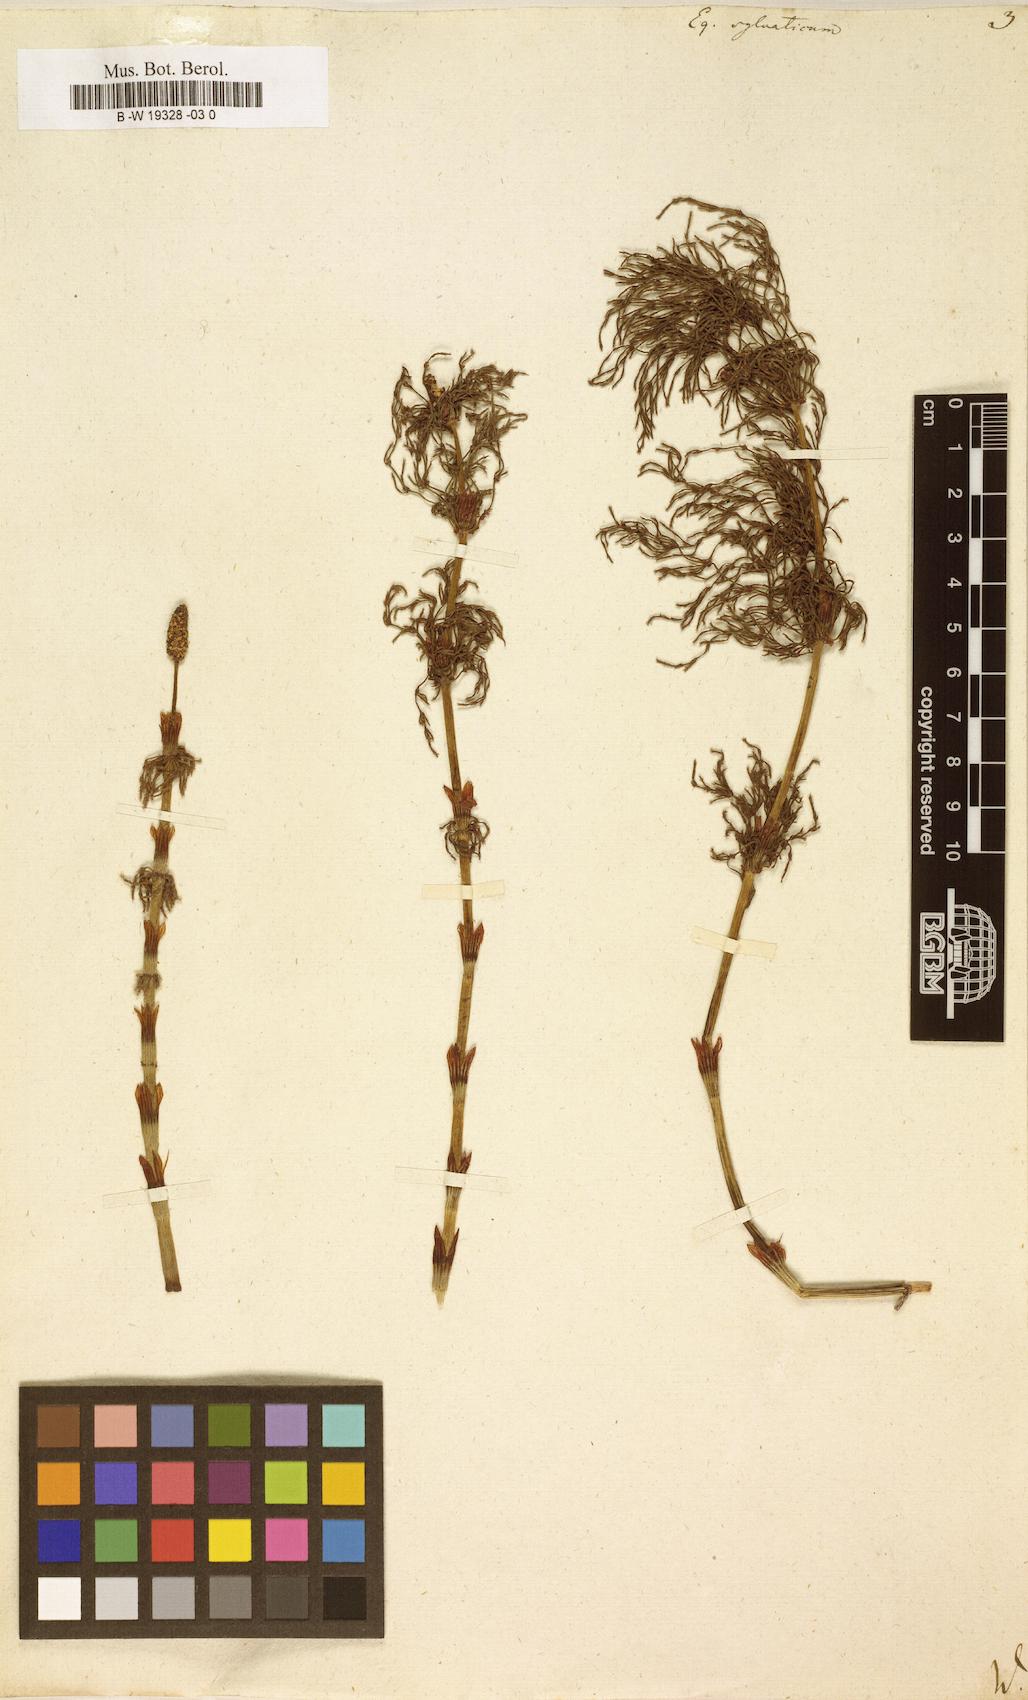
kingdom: Plantae
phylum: Tracheophyta
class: Polypodiopsida
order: Equisetales
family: Equisetaceae
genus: Equisetum
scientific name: Equisetum sylvaticum
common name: Wood horsetail
